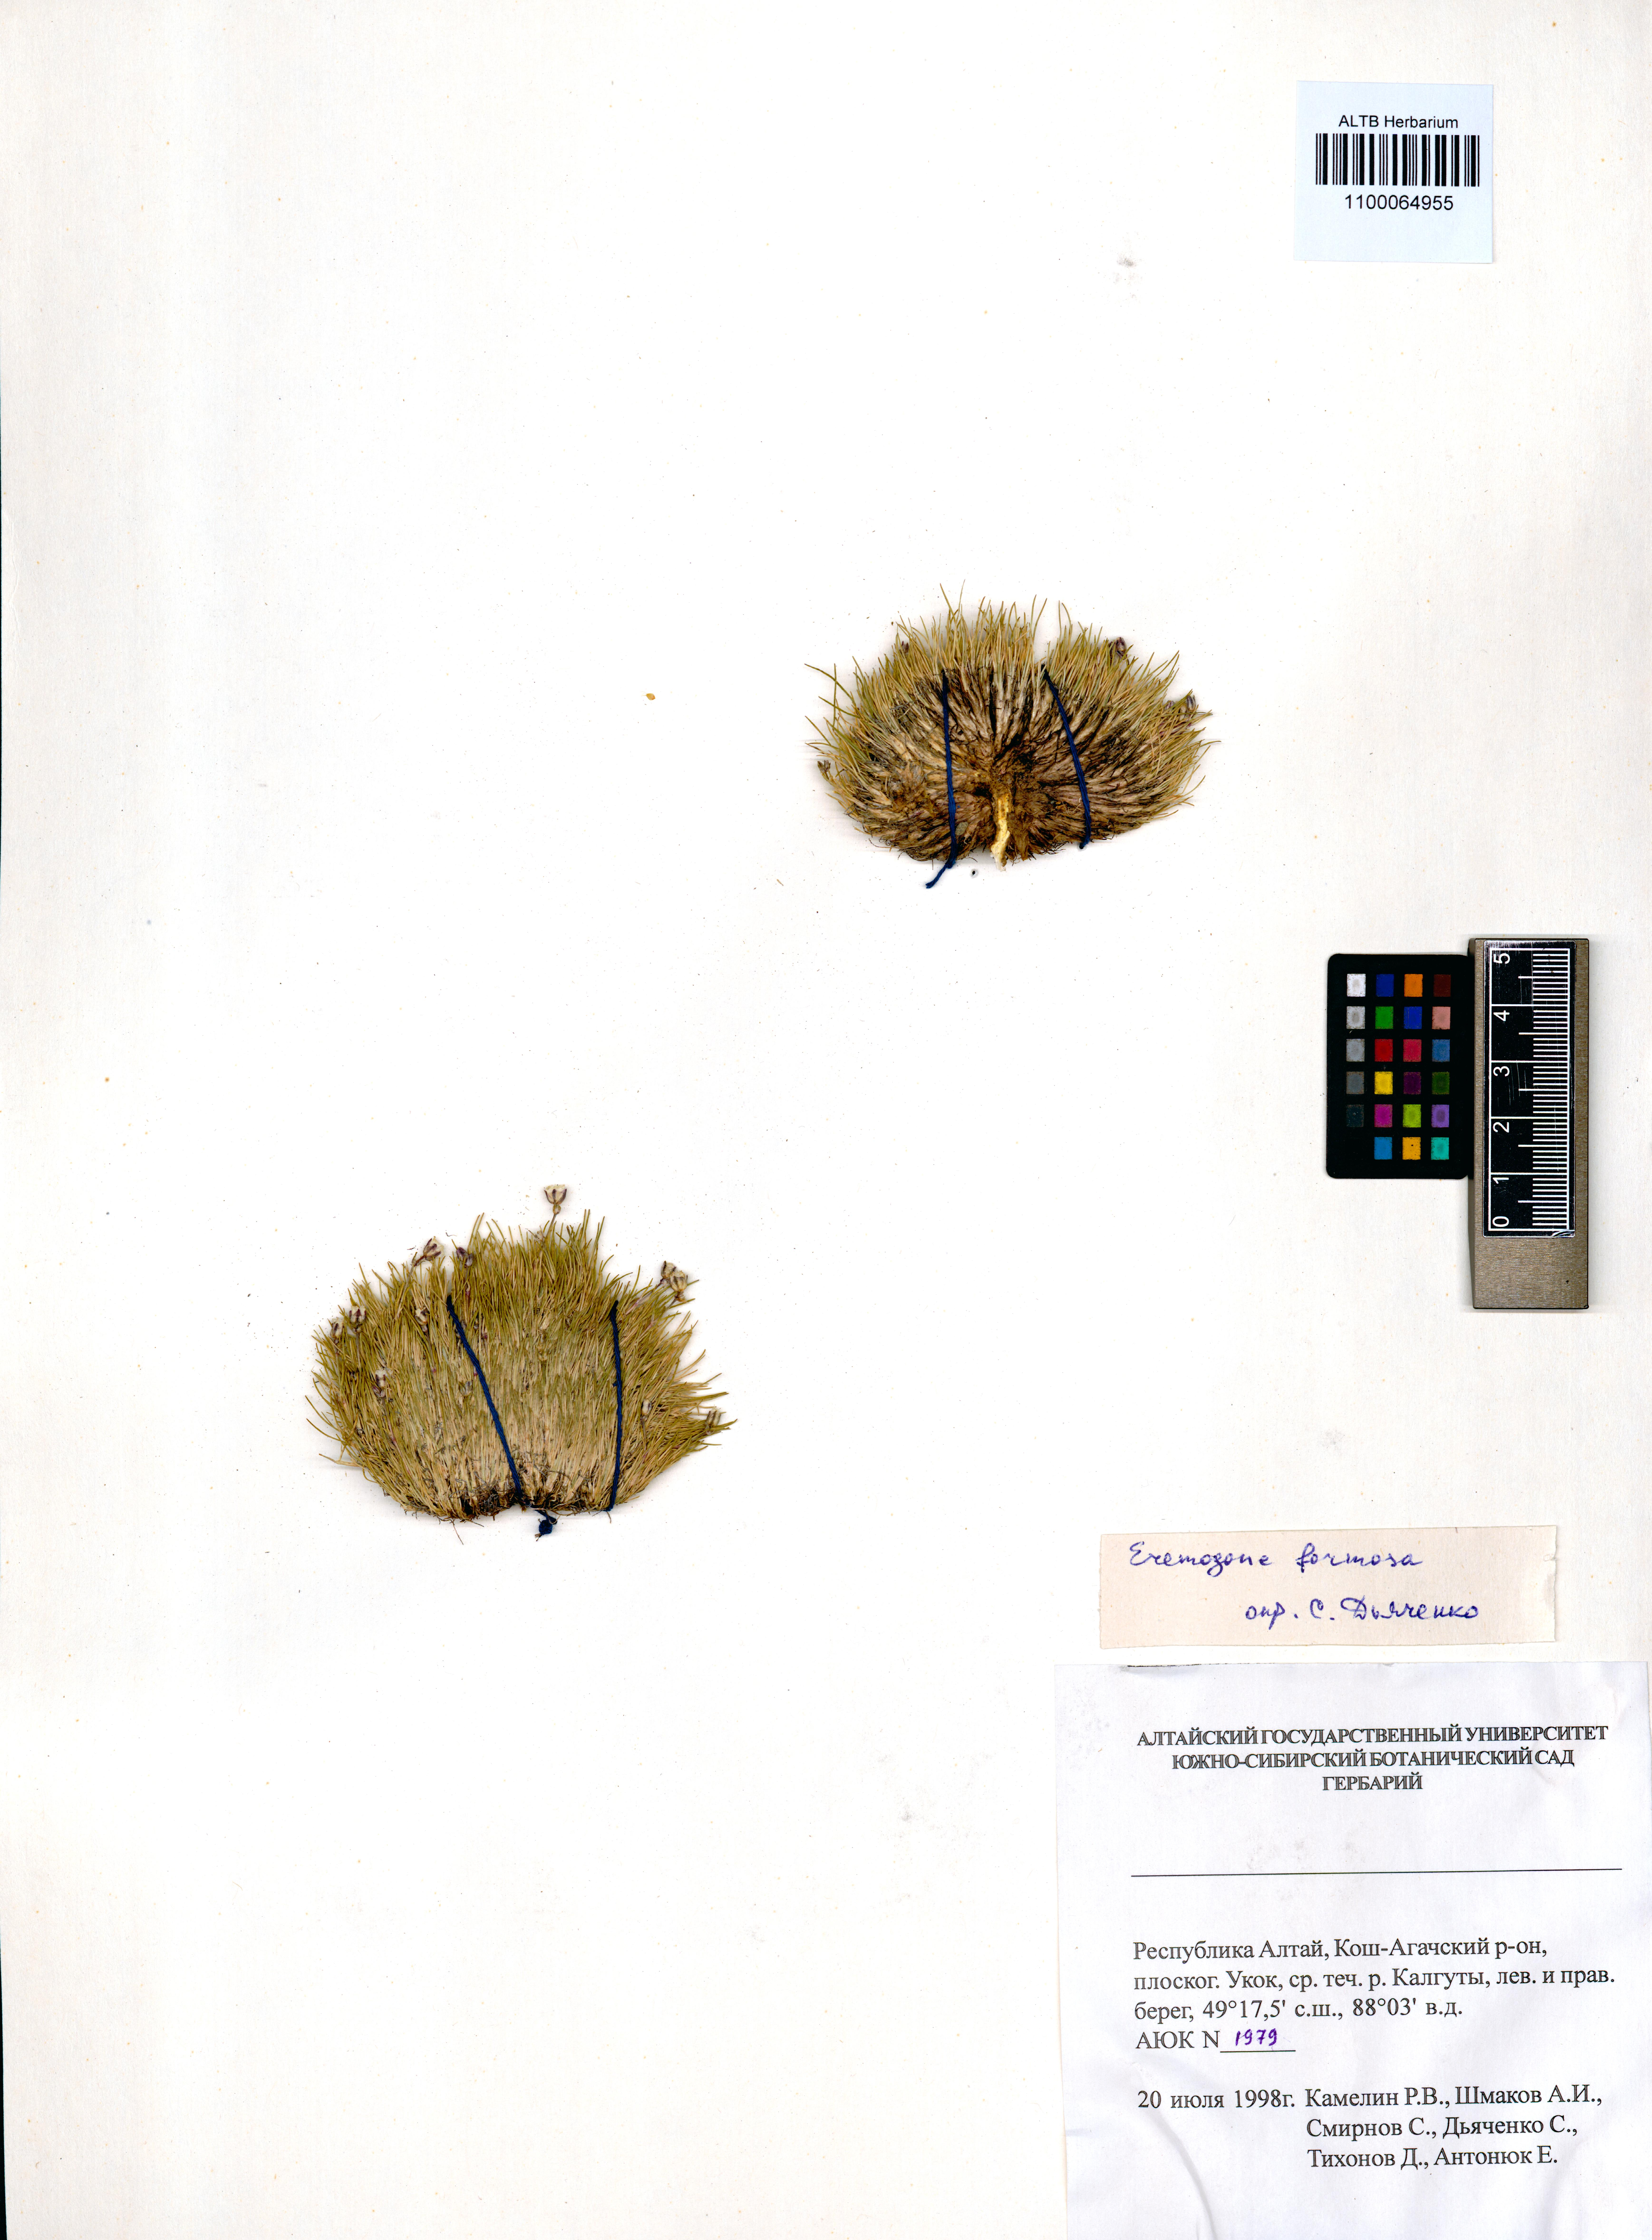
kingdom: Plantae
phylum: Tracheophyta
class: Magnoliopsida
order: Caryophyllales
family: Caryophyllaceae
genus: Eremogone
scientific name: Eremogone formosa
